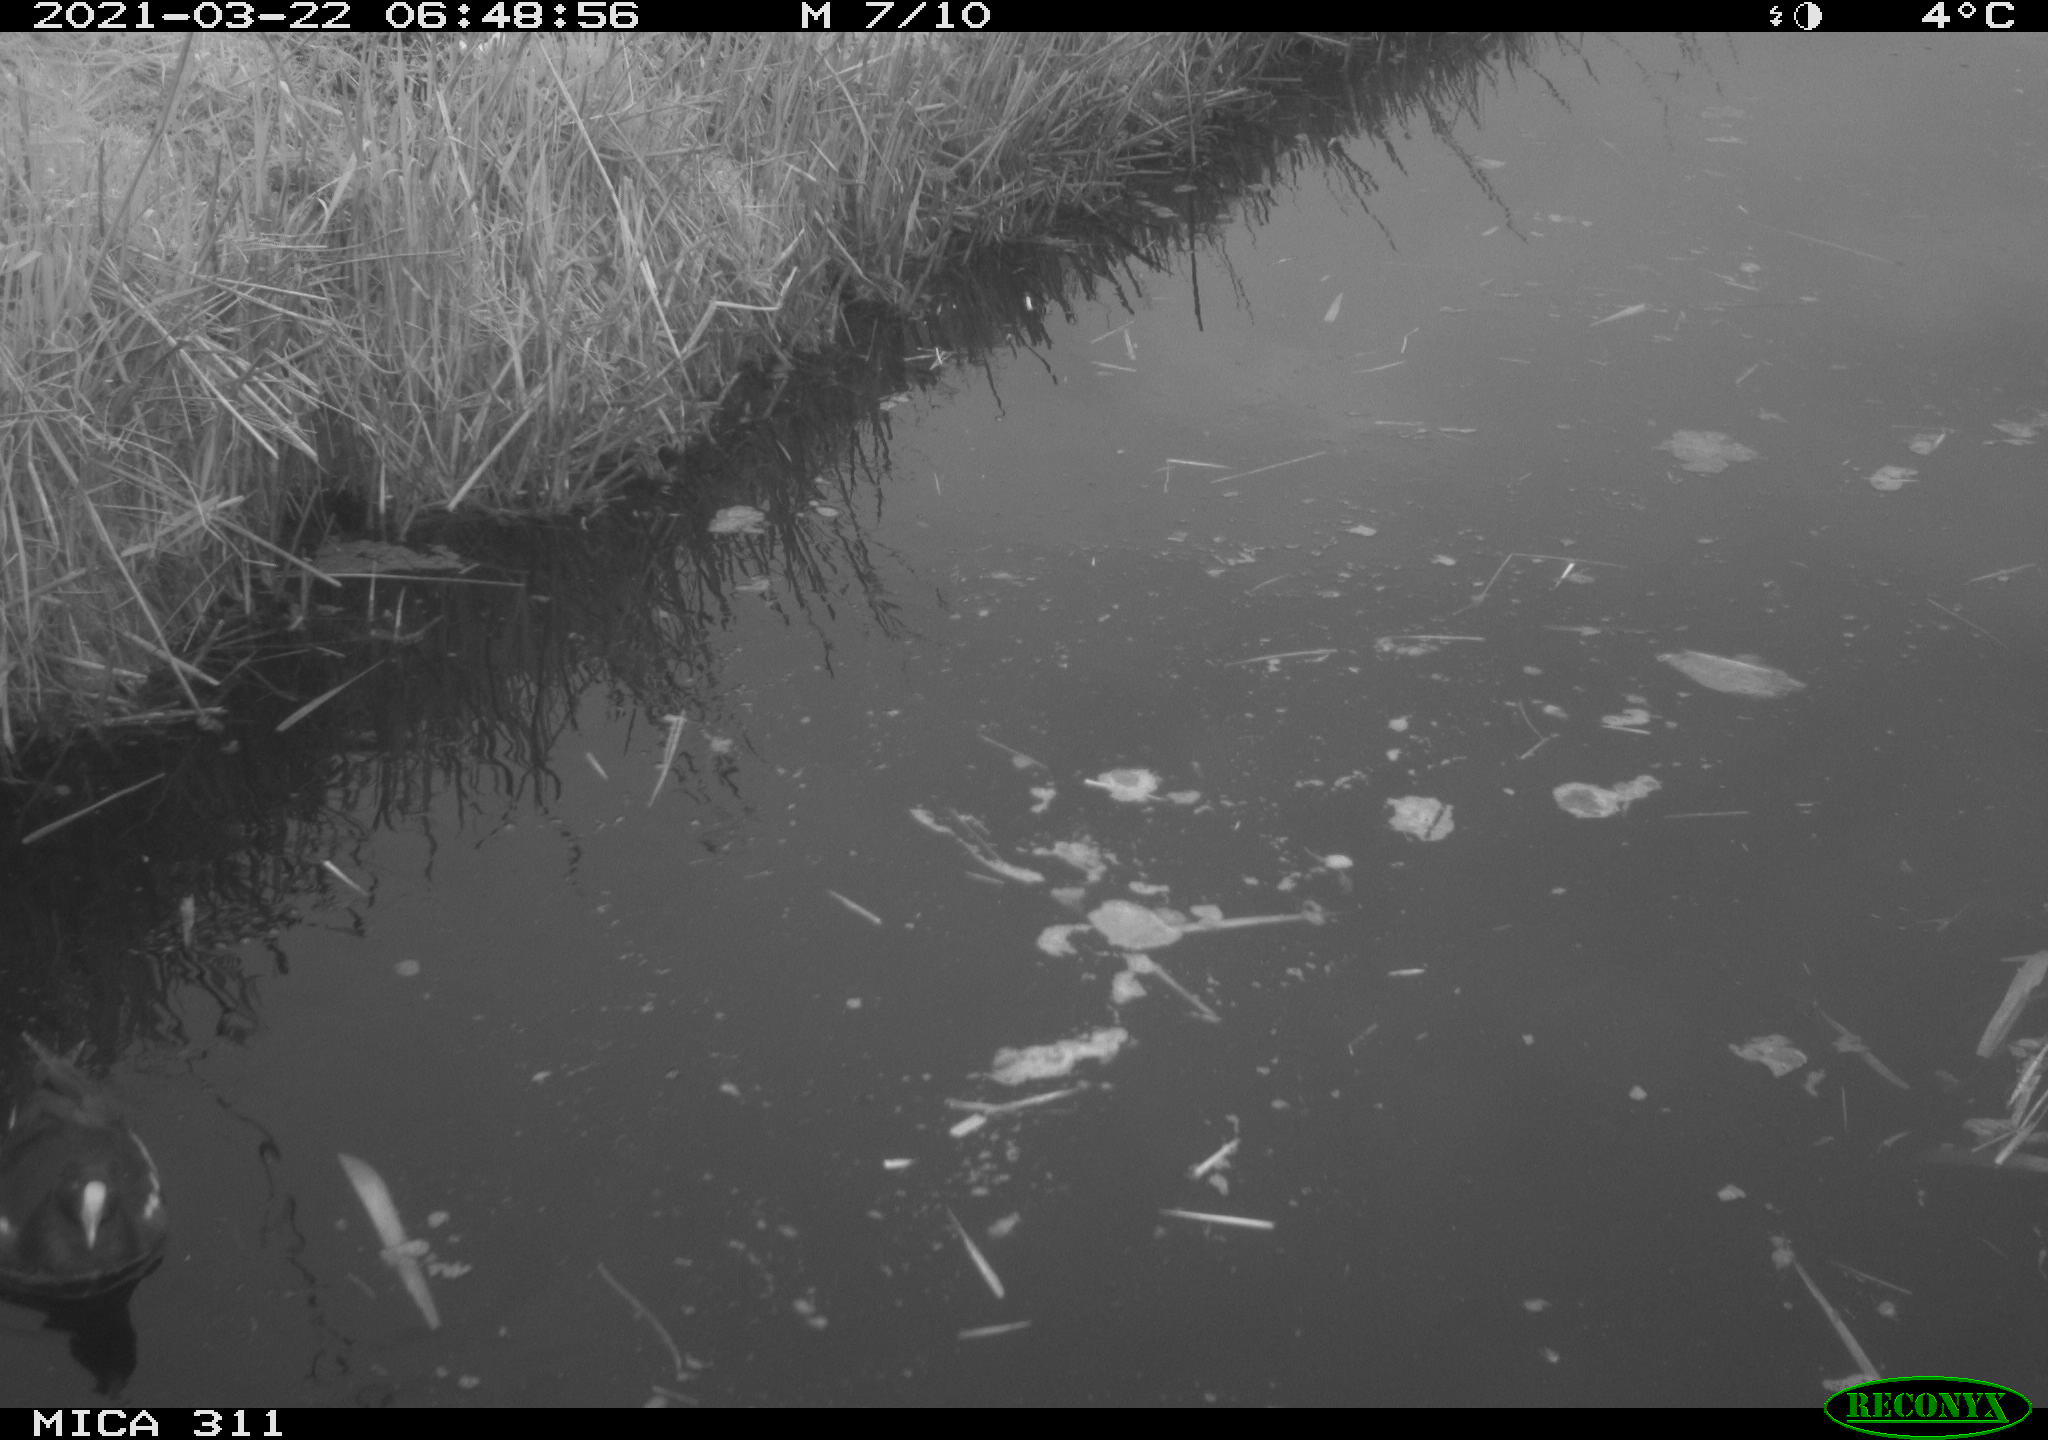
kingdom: Animalia
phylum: Chordata
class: Aves
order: Gruiformes
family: Rallidae
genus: Gallinula
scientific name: Gallinula chloropus
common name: Common moorhen
